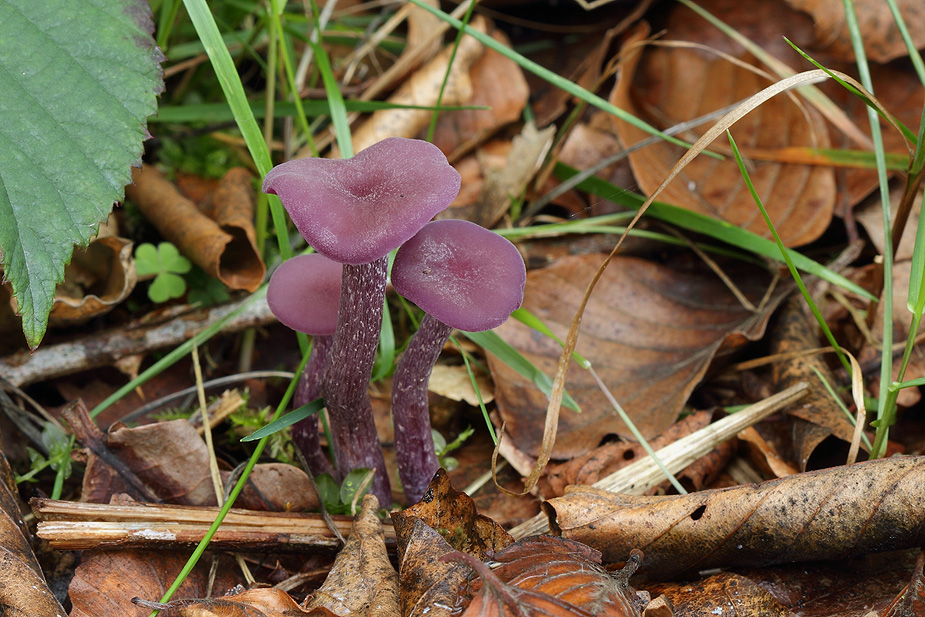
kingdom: Fungi
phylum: Basidiomycota
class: Agaricomycetes
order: Agaricales
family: Hydnangiaceae
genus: Laccaria
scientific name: Laccaria amethystina
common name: violet ametysthat
